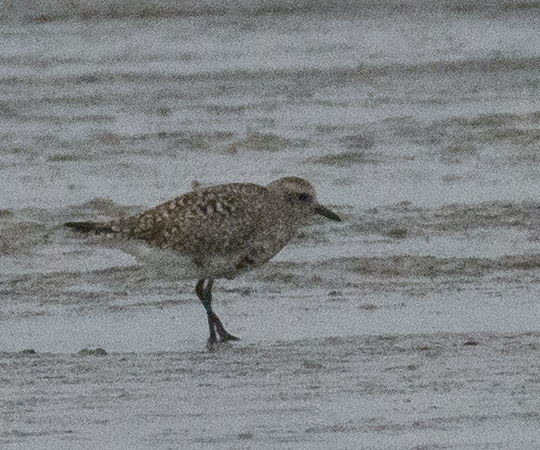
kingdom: Animalia
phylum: Chordata
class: Aves
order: Charadriiformes
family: Charadriidae
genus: Pluvialis
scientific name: Pluvialis squatarola
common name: Strandhjejle
